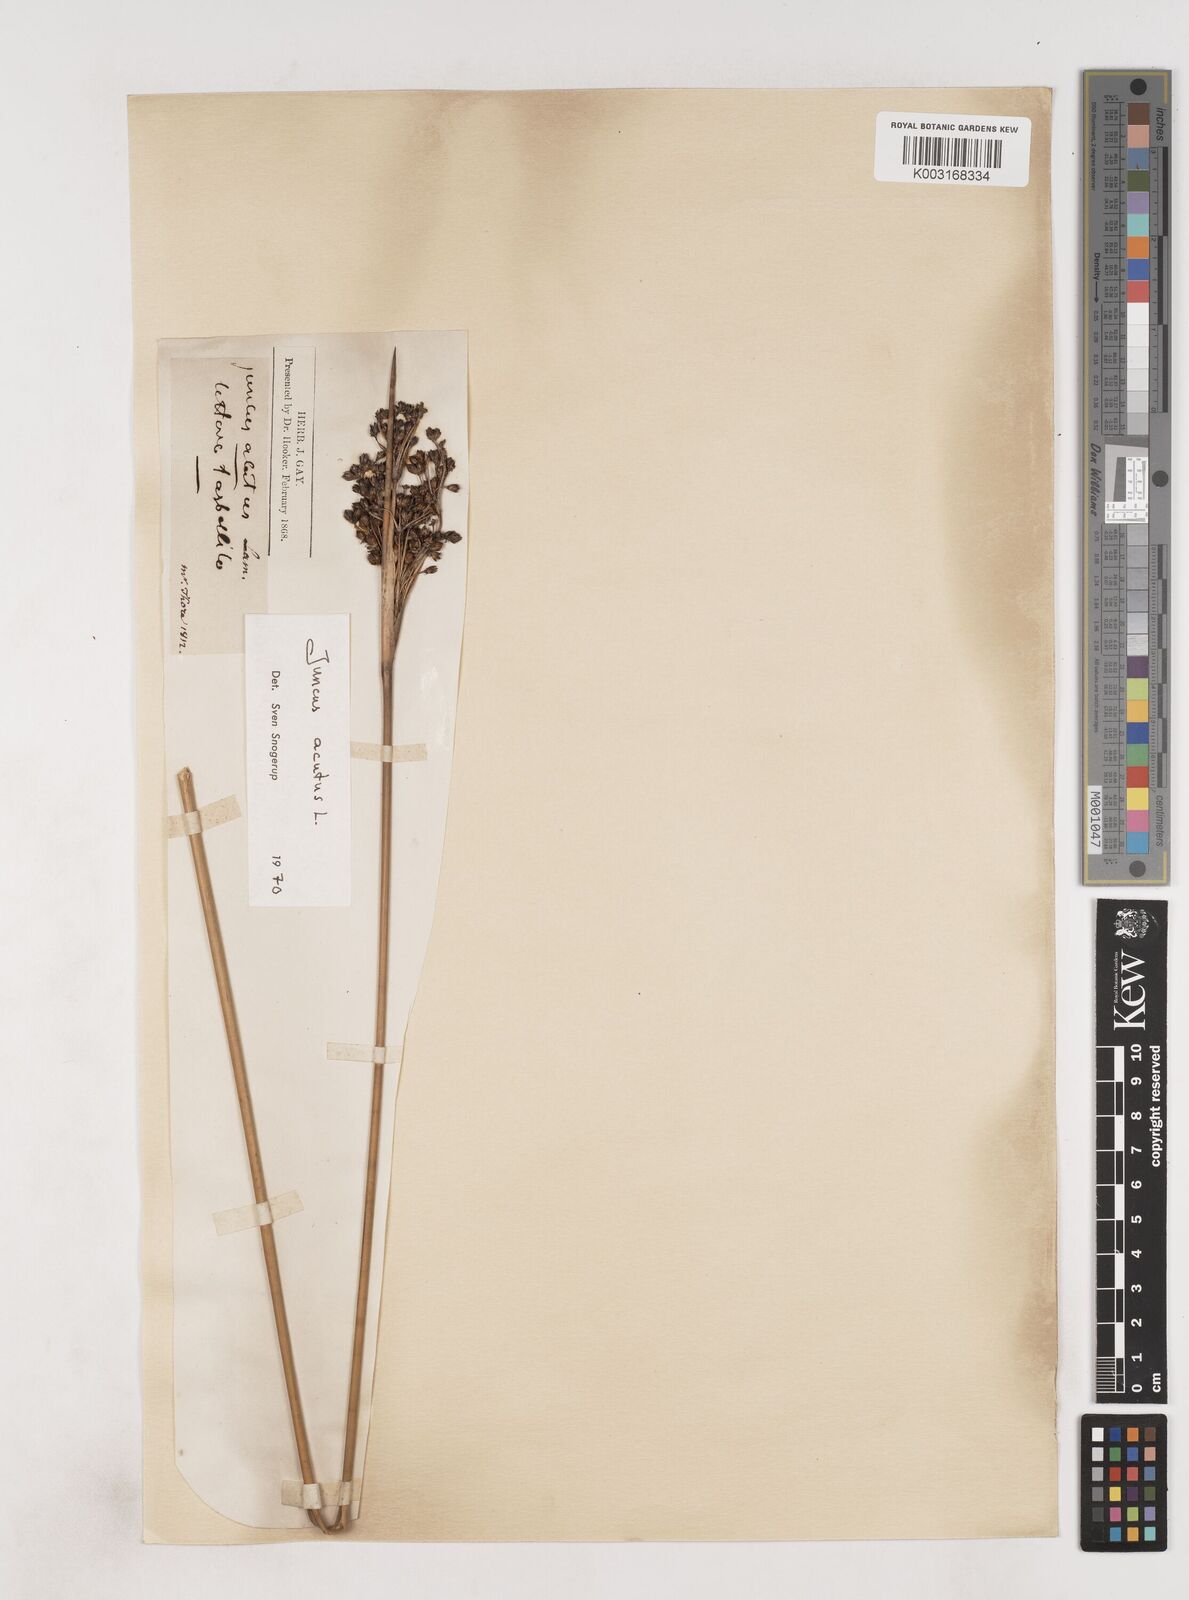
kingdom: Plantae
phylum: Tracheophyta
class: Liliopsida
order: Poales
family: Juncaceae
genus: Juncus
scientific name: Juncus acutus
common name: Sharp rush
